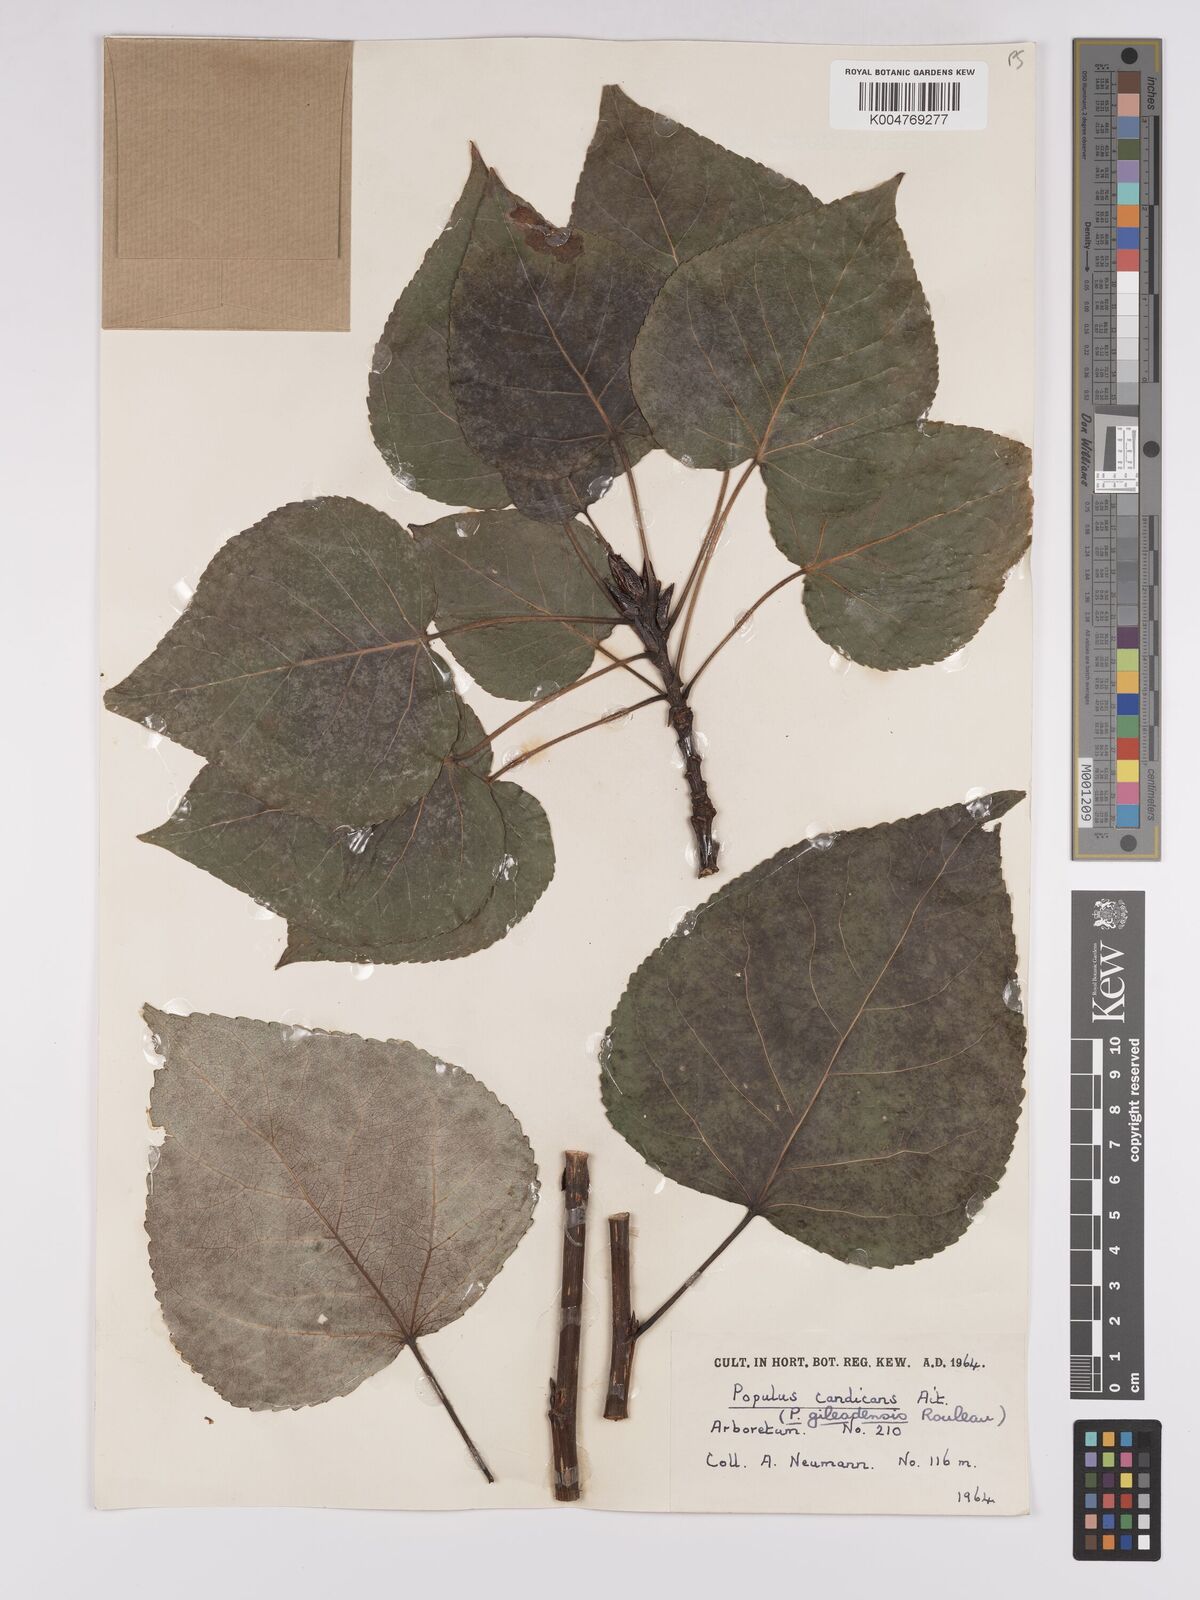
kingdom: Plantae
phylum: Tracheophyta
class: Magnoliopsida
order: Malpighiales
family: Salicaceae
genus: Populus
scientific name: Populus jackii
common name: Balm-of-gilead
